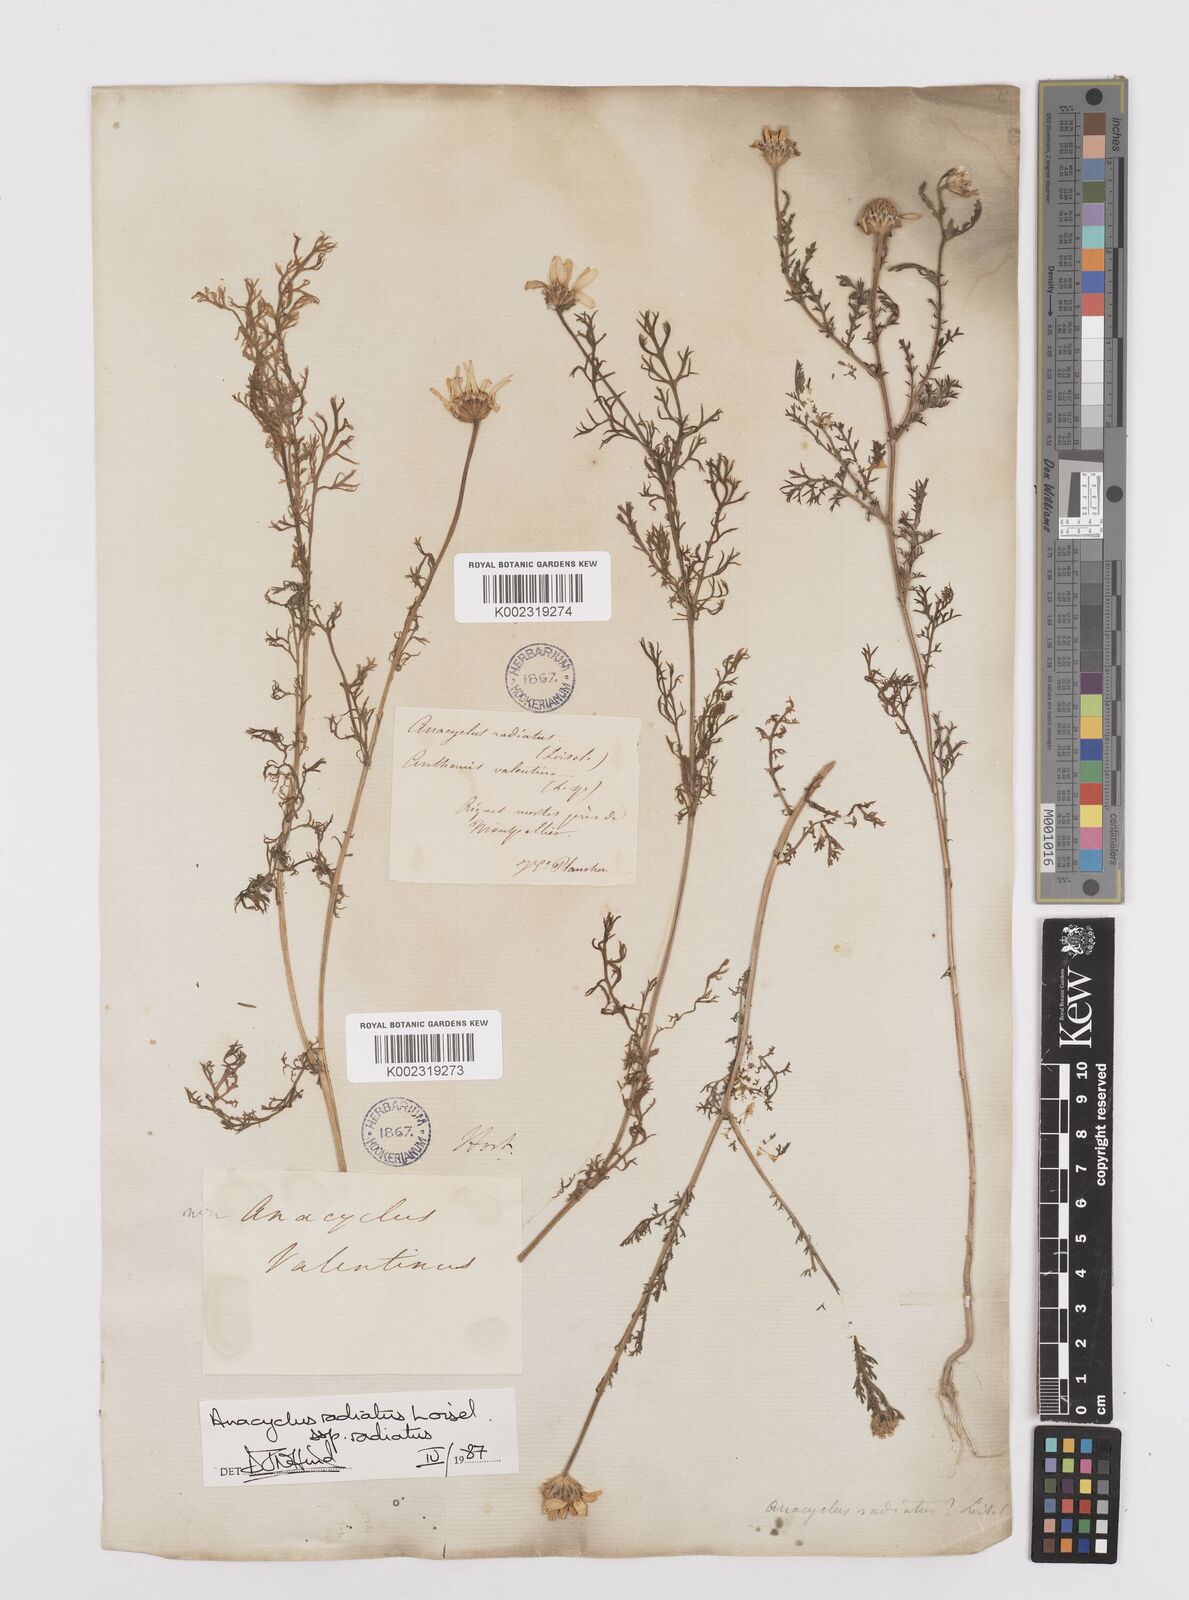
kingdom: Plantae
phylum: Tracheophyta
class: Magnoliopsida
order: Asterales
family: Asteraceae
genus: Anacyclus
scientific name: Anacyclus radiatus
